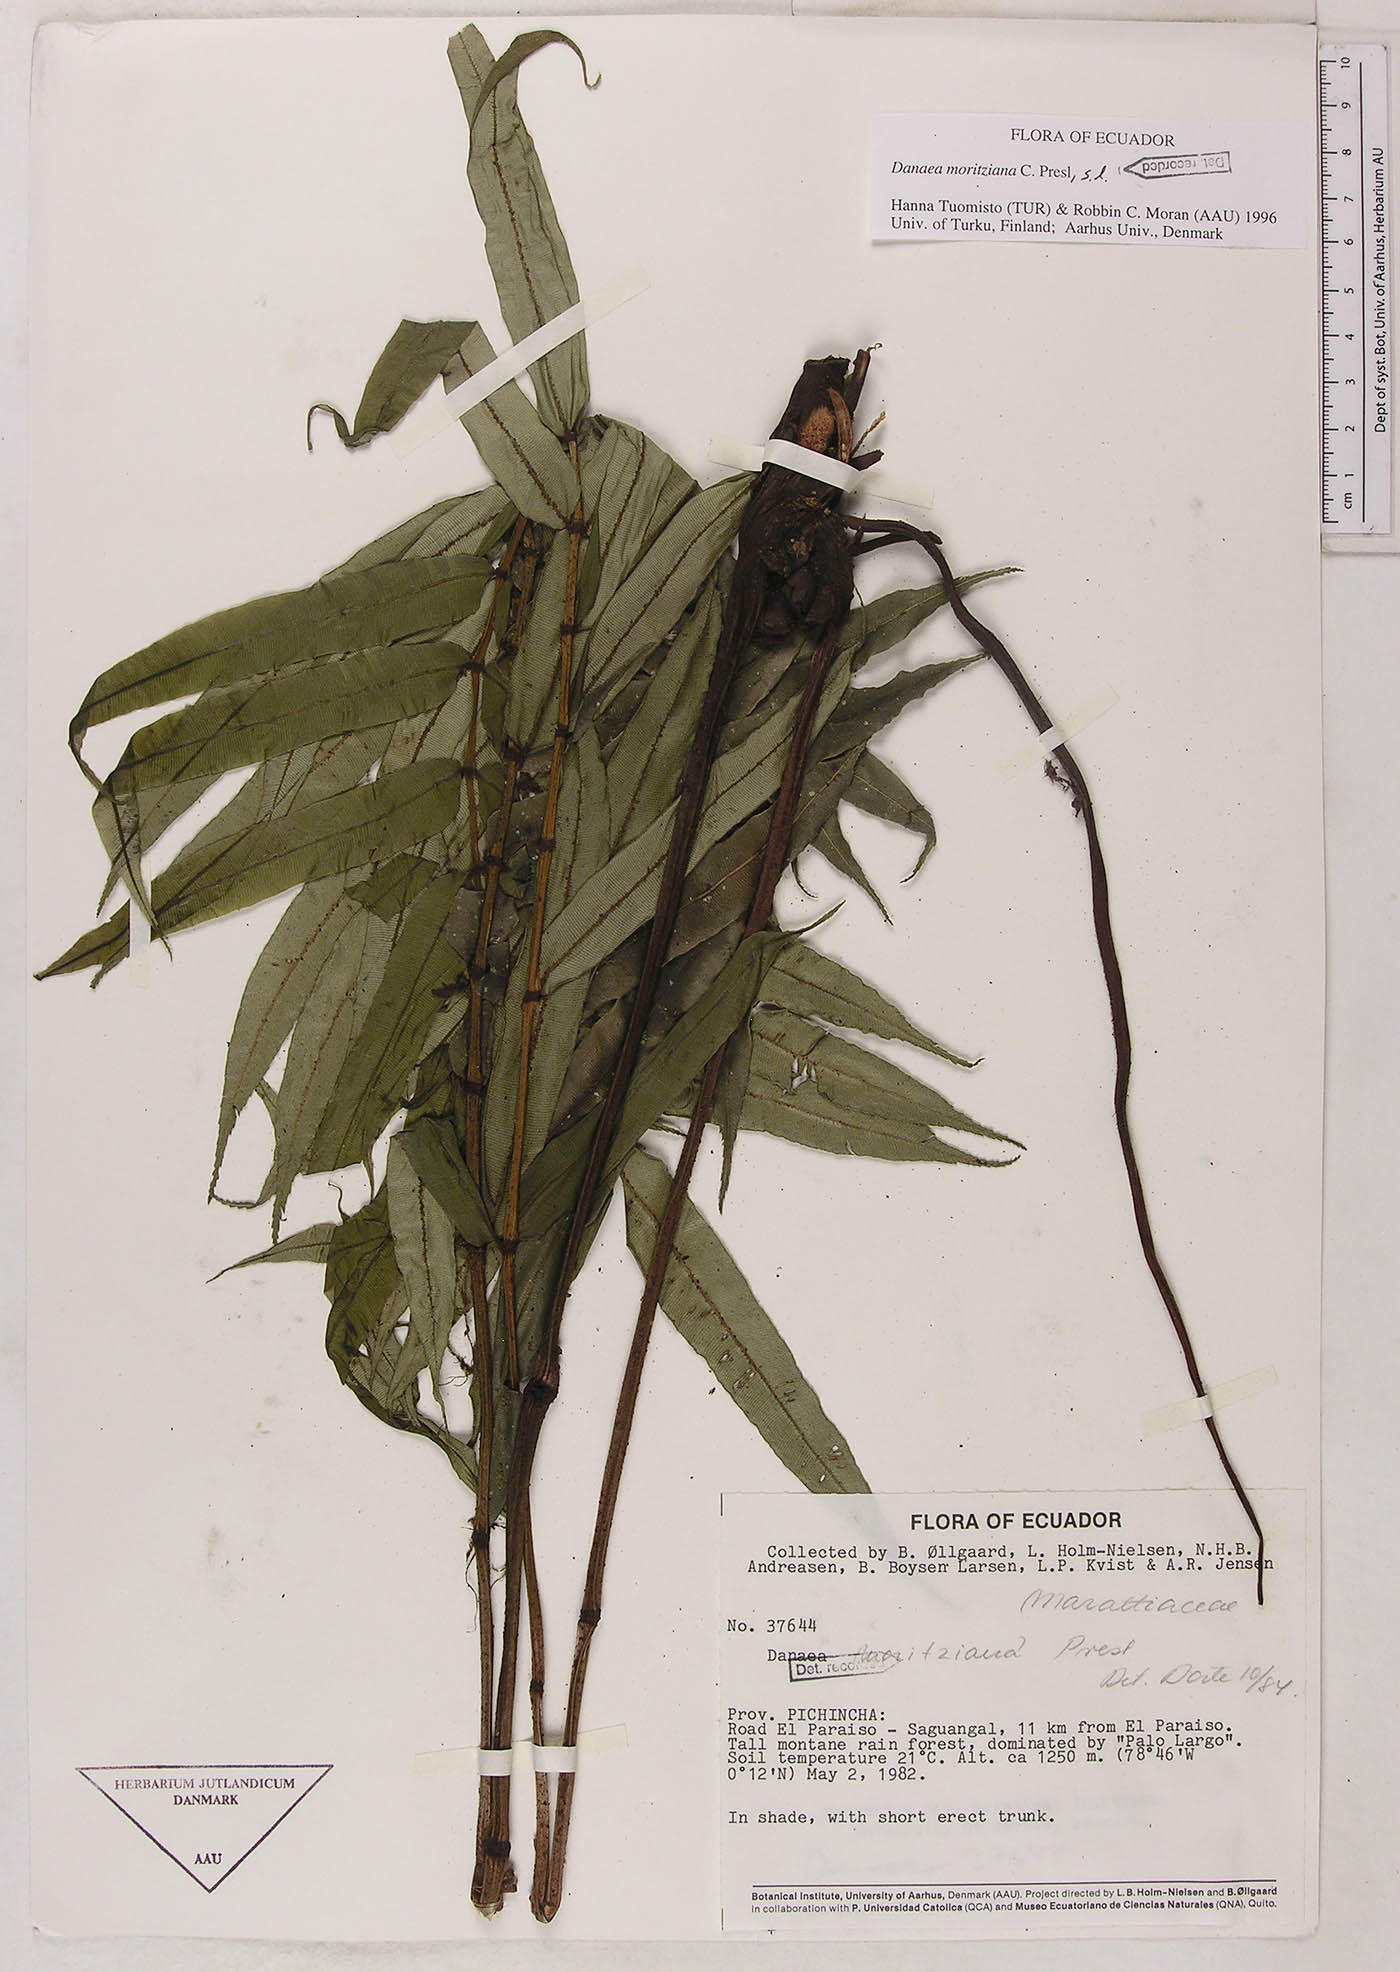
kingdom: Plantae
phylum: Tracheophyta
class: Polypodiopsida
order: Marattiales
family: Marattiaceae
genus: Danaea
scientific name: Danaea moritziana
